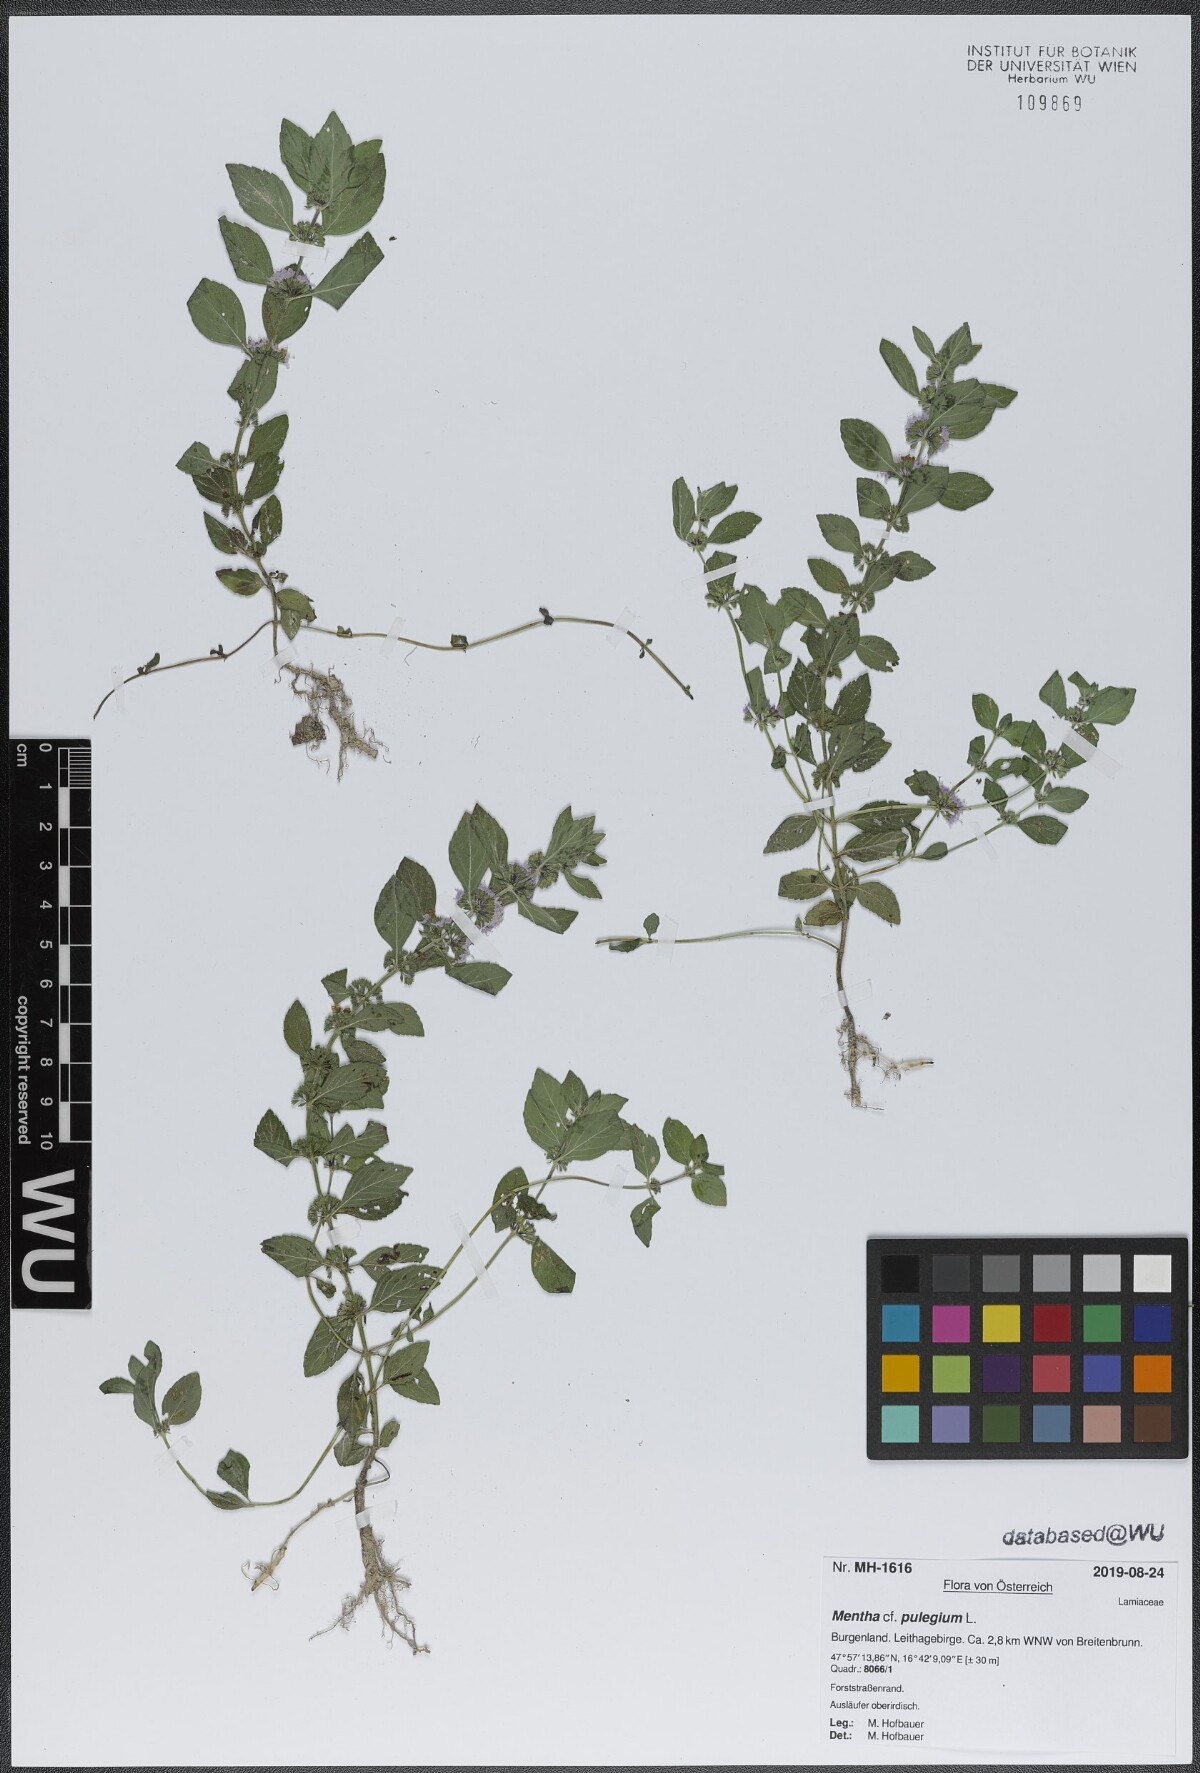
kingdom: Plantae
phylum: Tracheophyta
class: Magnoliopsida
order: Lamiales
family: Lamiaceae
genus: Mentha
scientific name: Mentha pulegium
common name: Pennyroyal
